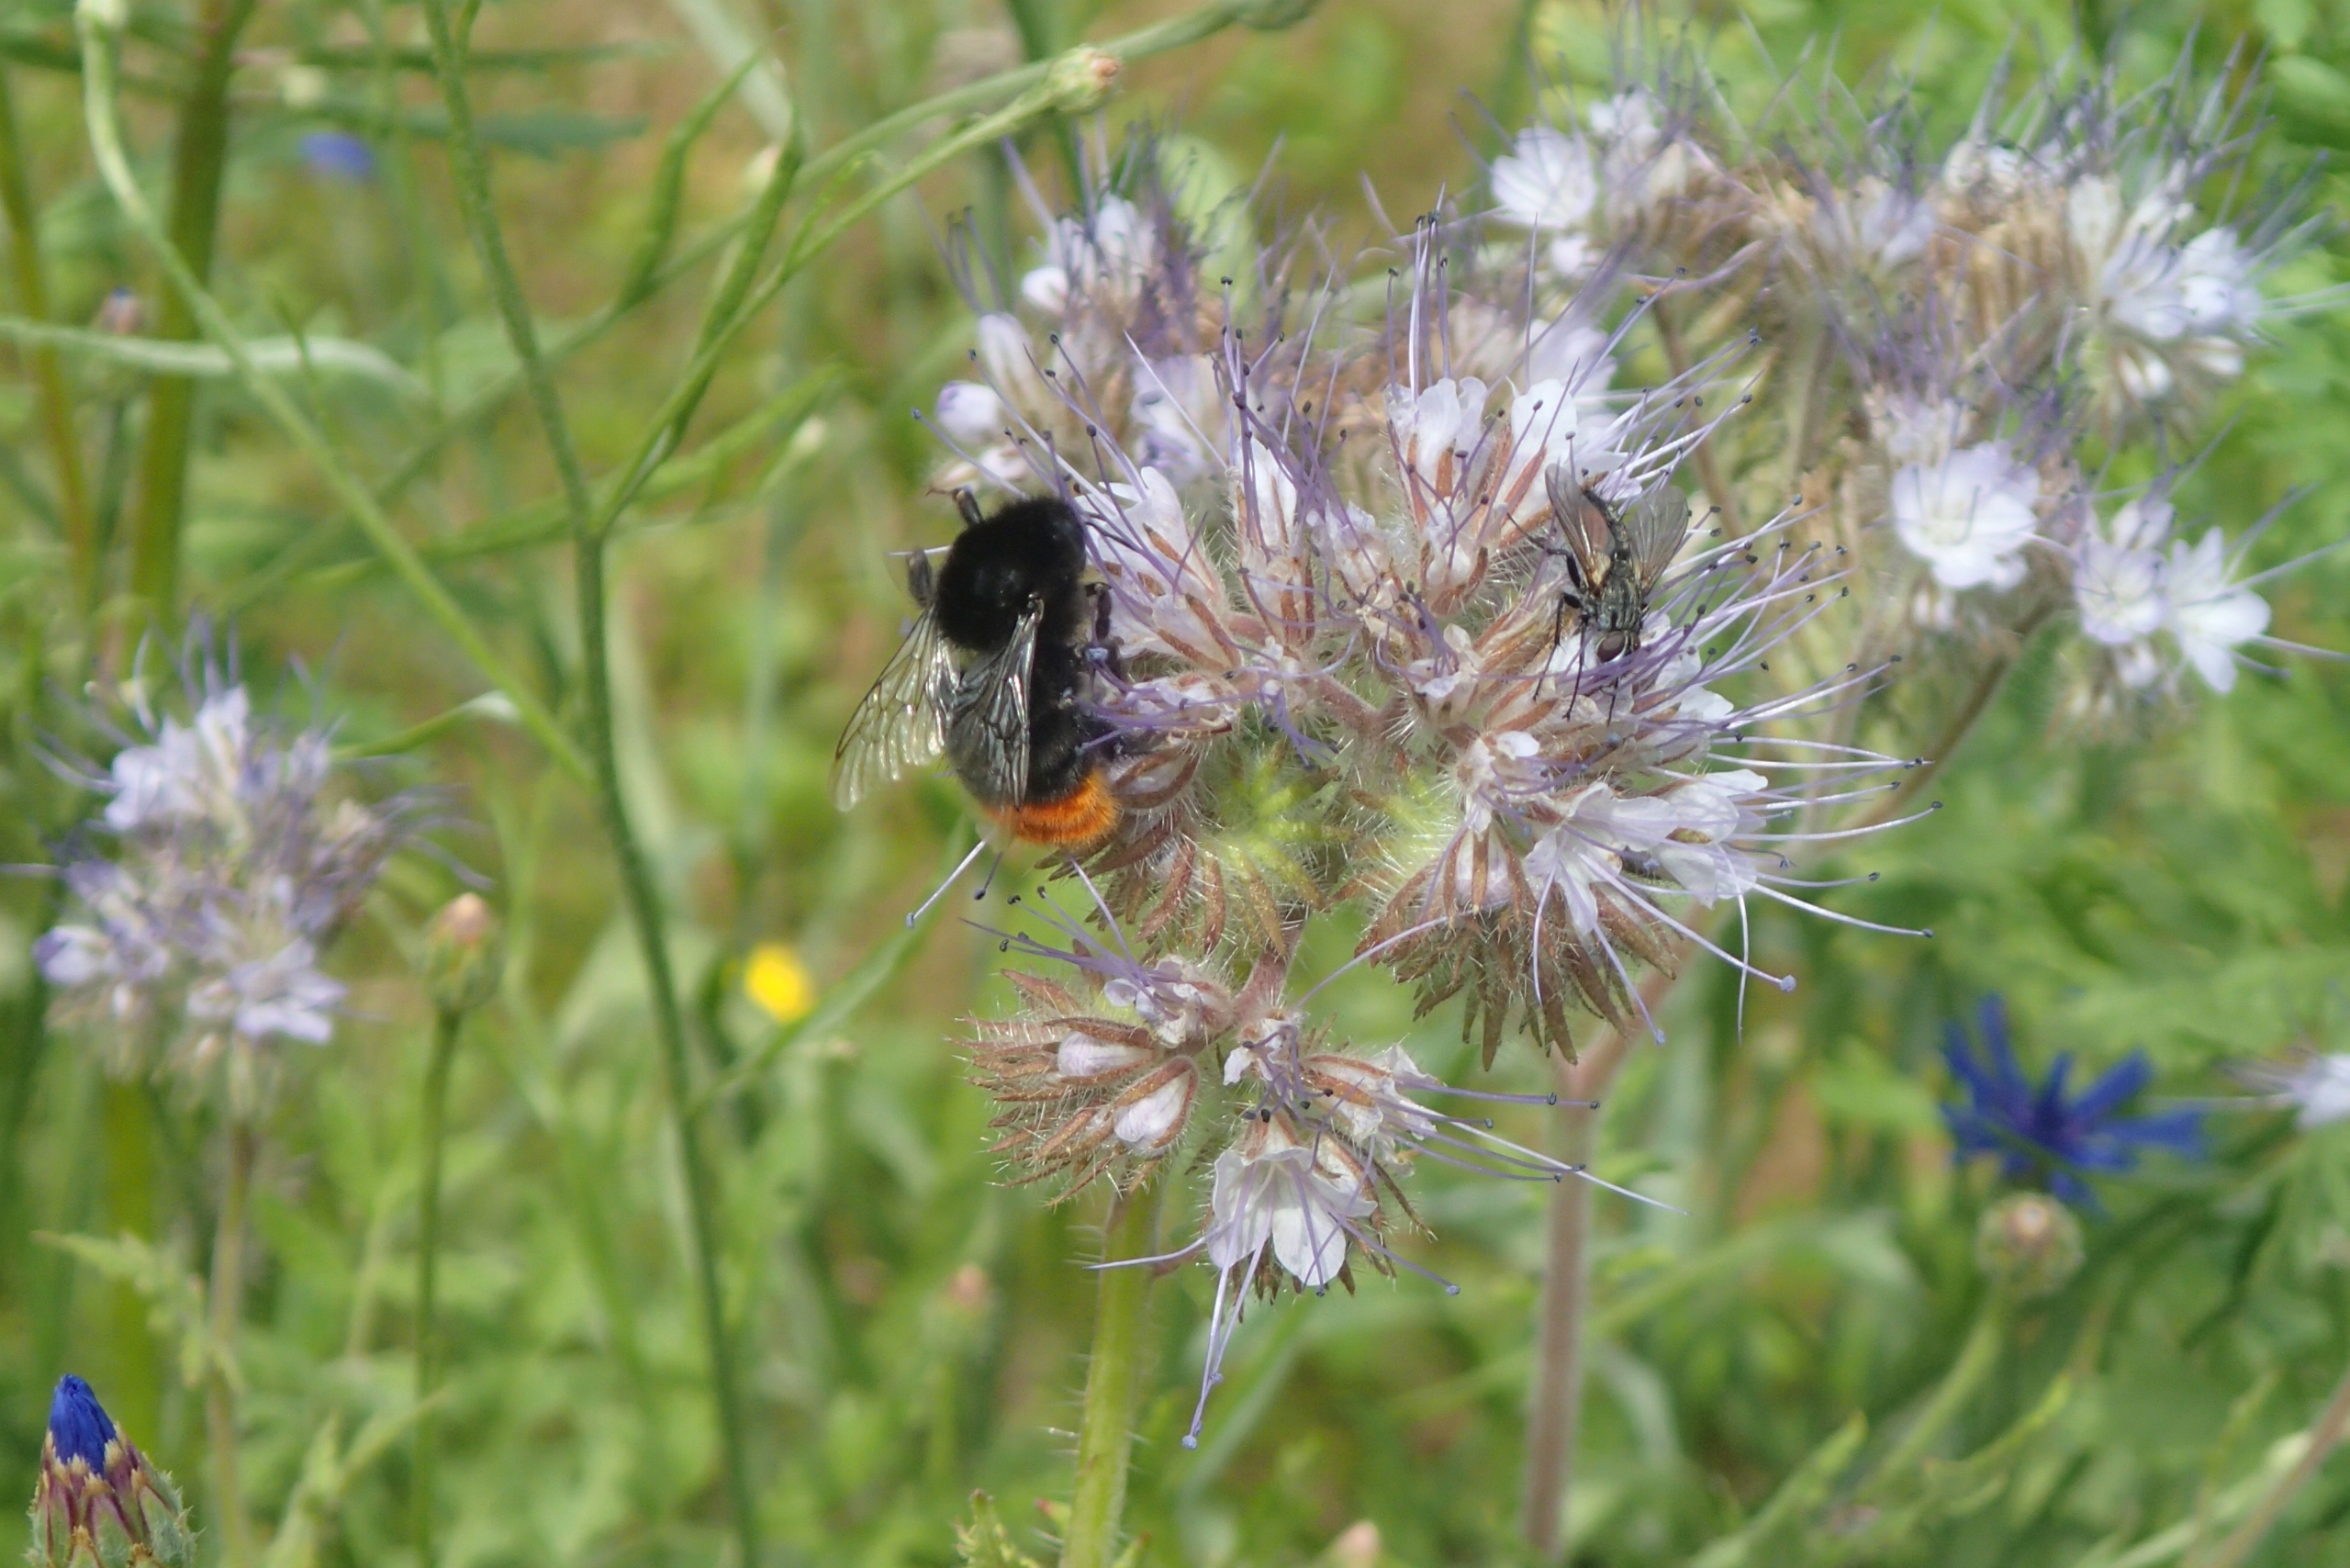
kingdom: Animalia
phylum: Arthropoda
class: Insecta
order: Hymenoptera
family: Apidae
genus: Bombus
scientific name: Bombus lapidarius
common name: Stenhumle
